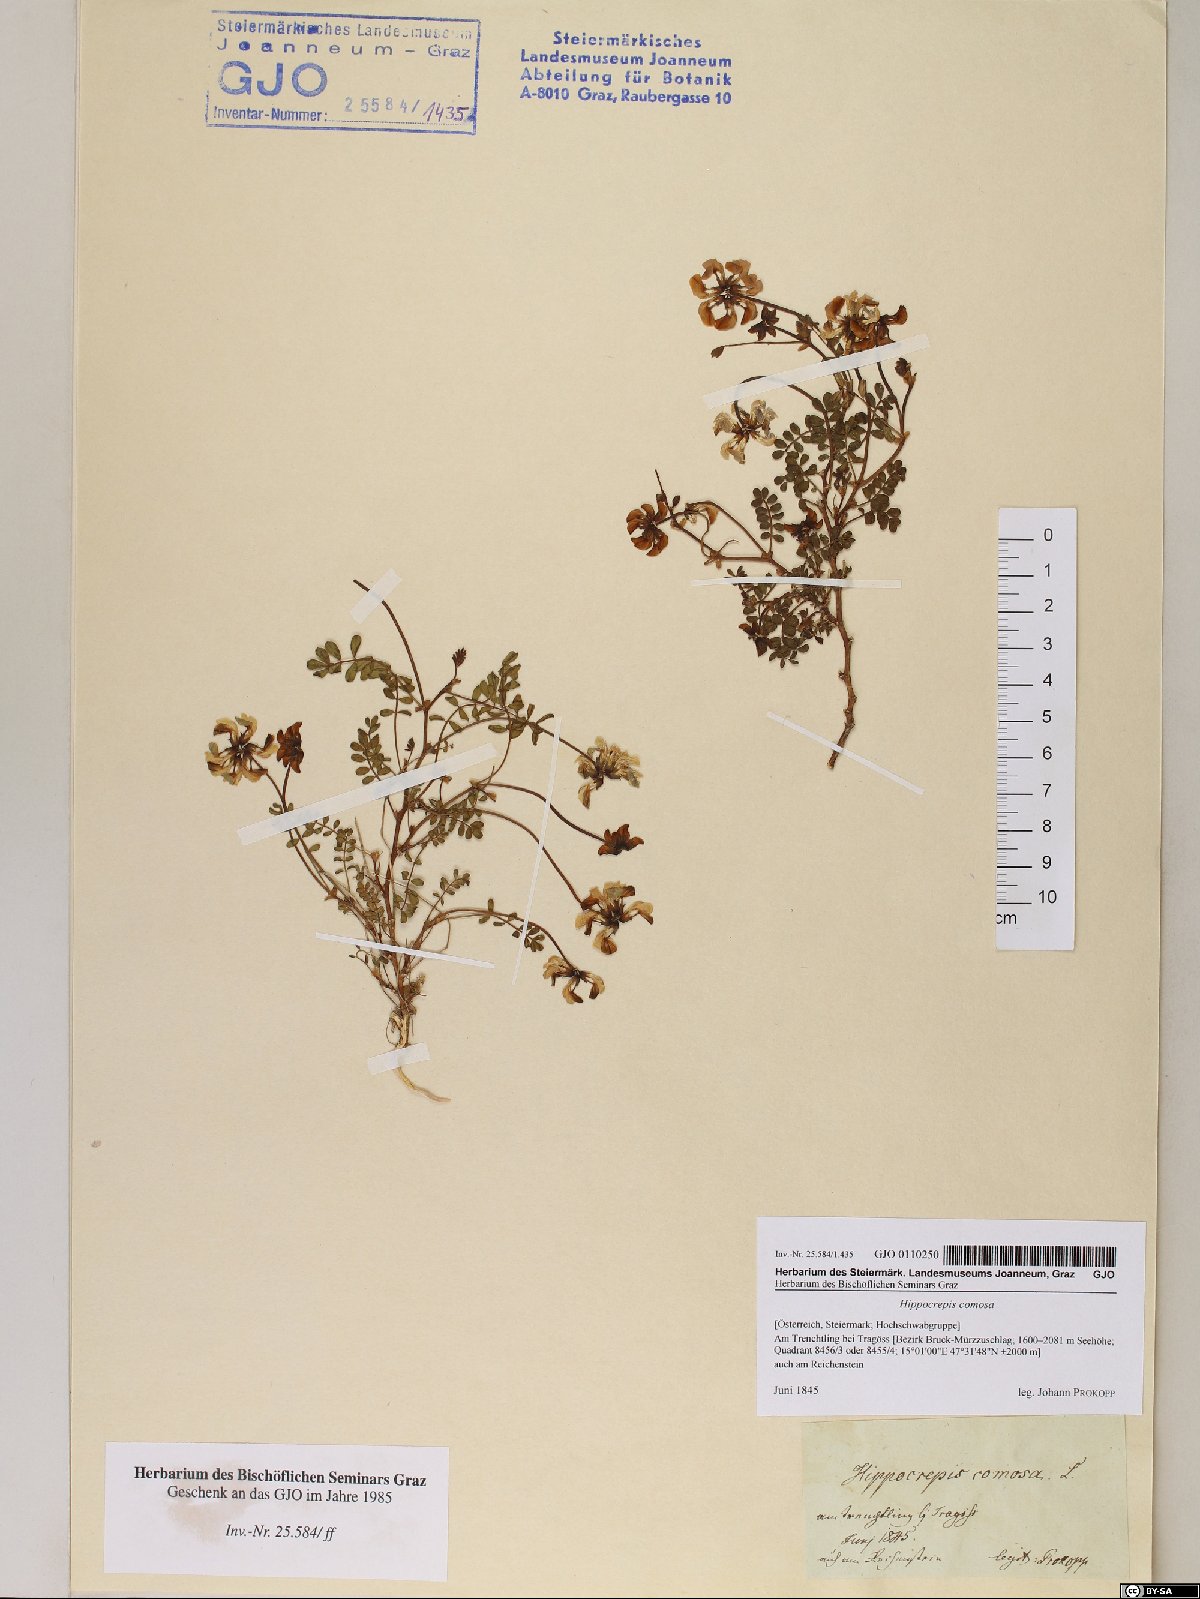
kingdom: Plantae
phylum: Tracheophyta
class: Magnoliopsida
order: Fabales
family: Fabaceae
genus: Hippocrepis
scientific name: Hippocrepis comosa
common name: Horseshoe vetch
